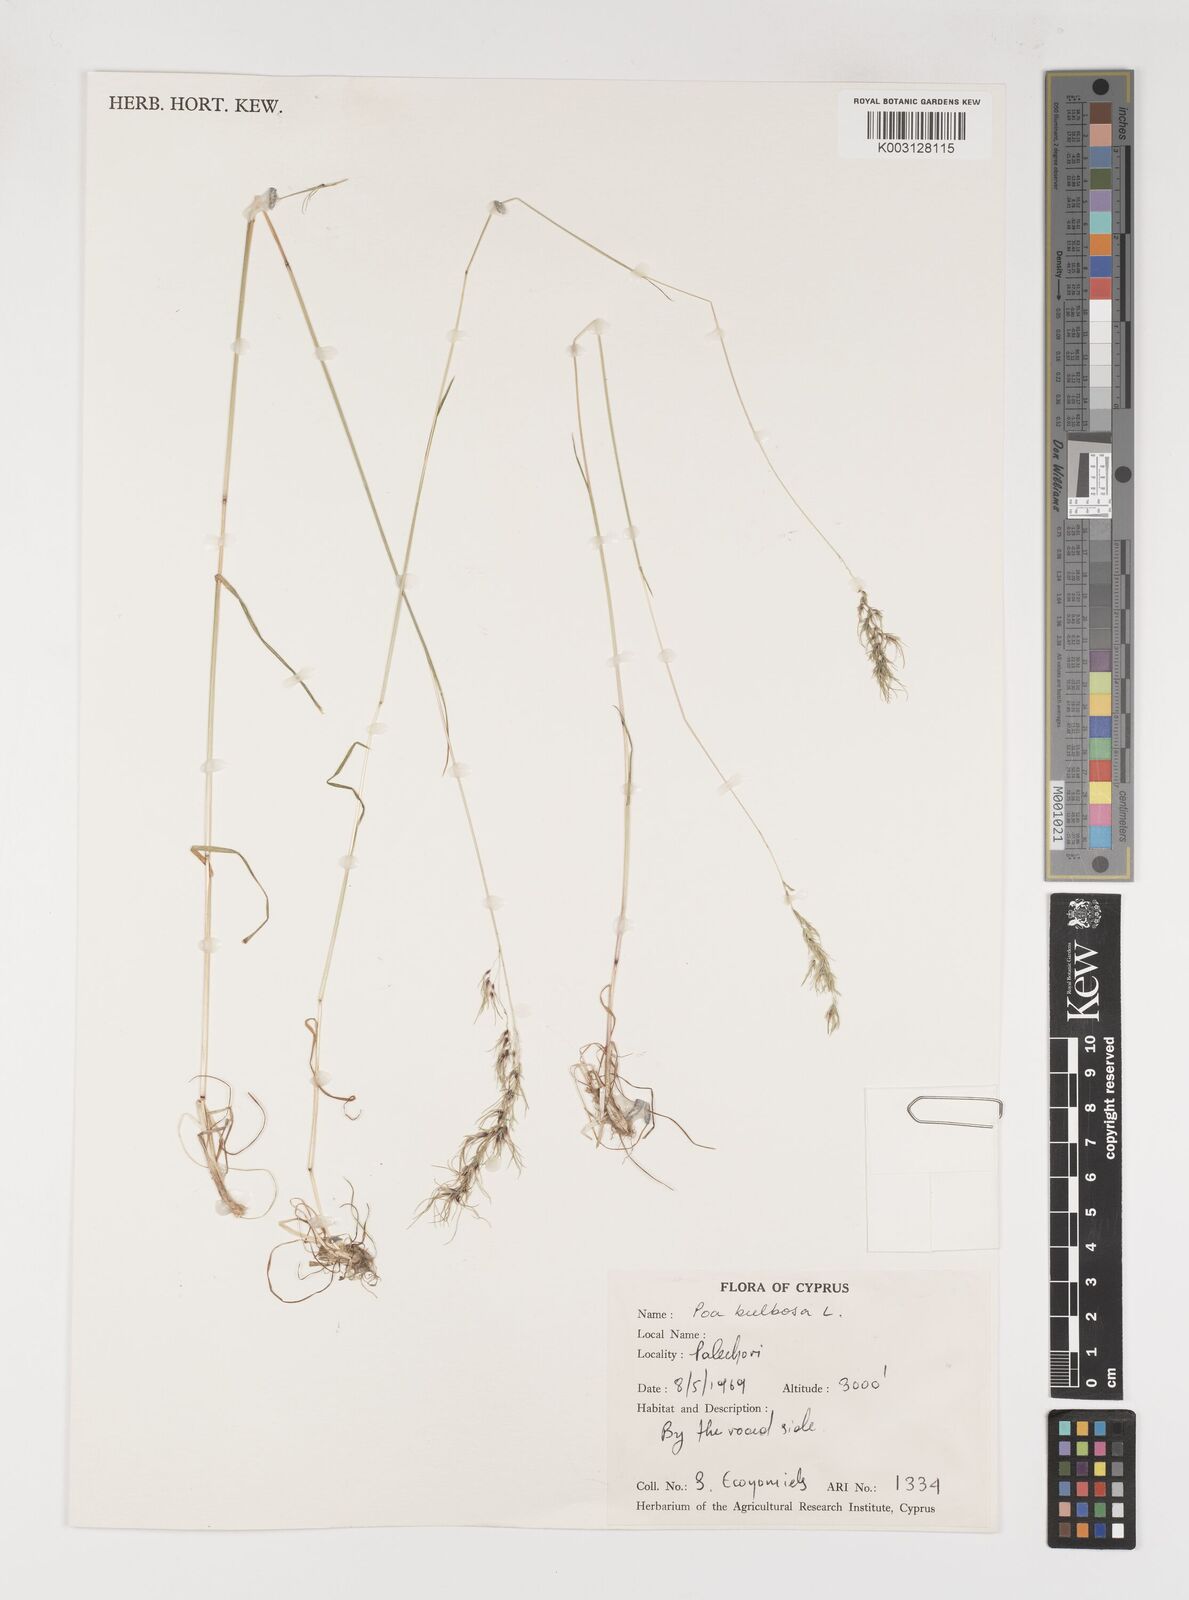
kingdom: Plantae
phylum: Tracheophyta
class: Liliopsida
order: Poales
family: Poaceae
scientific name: Poaceae
